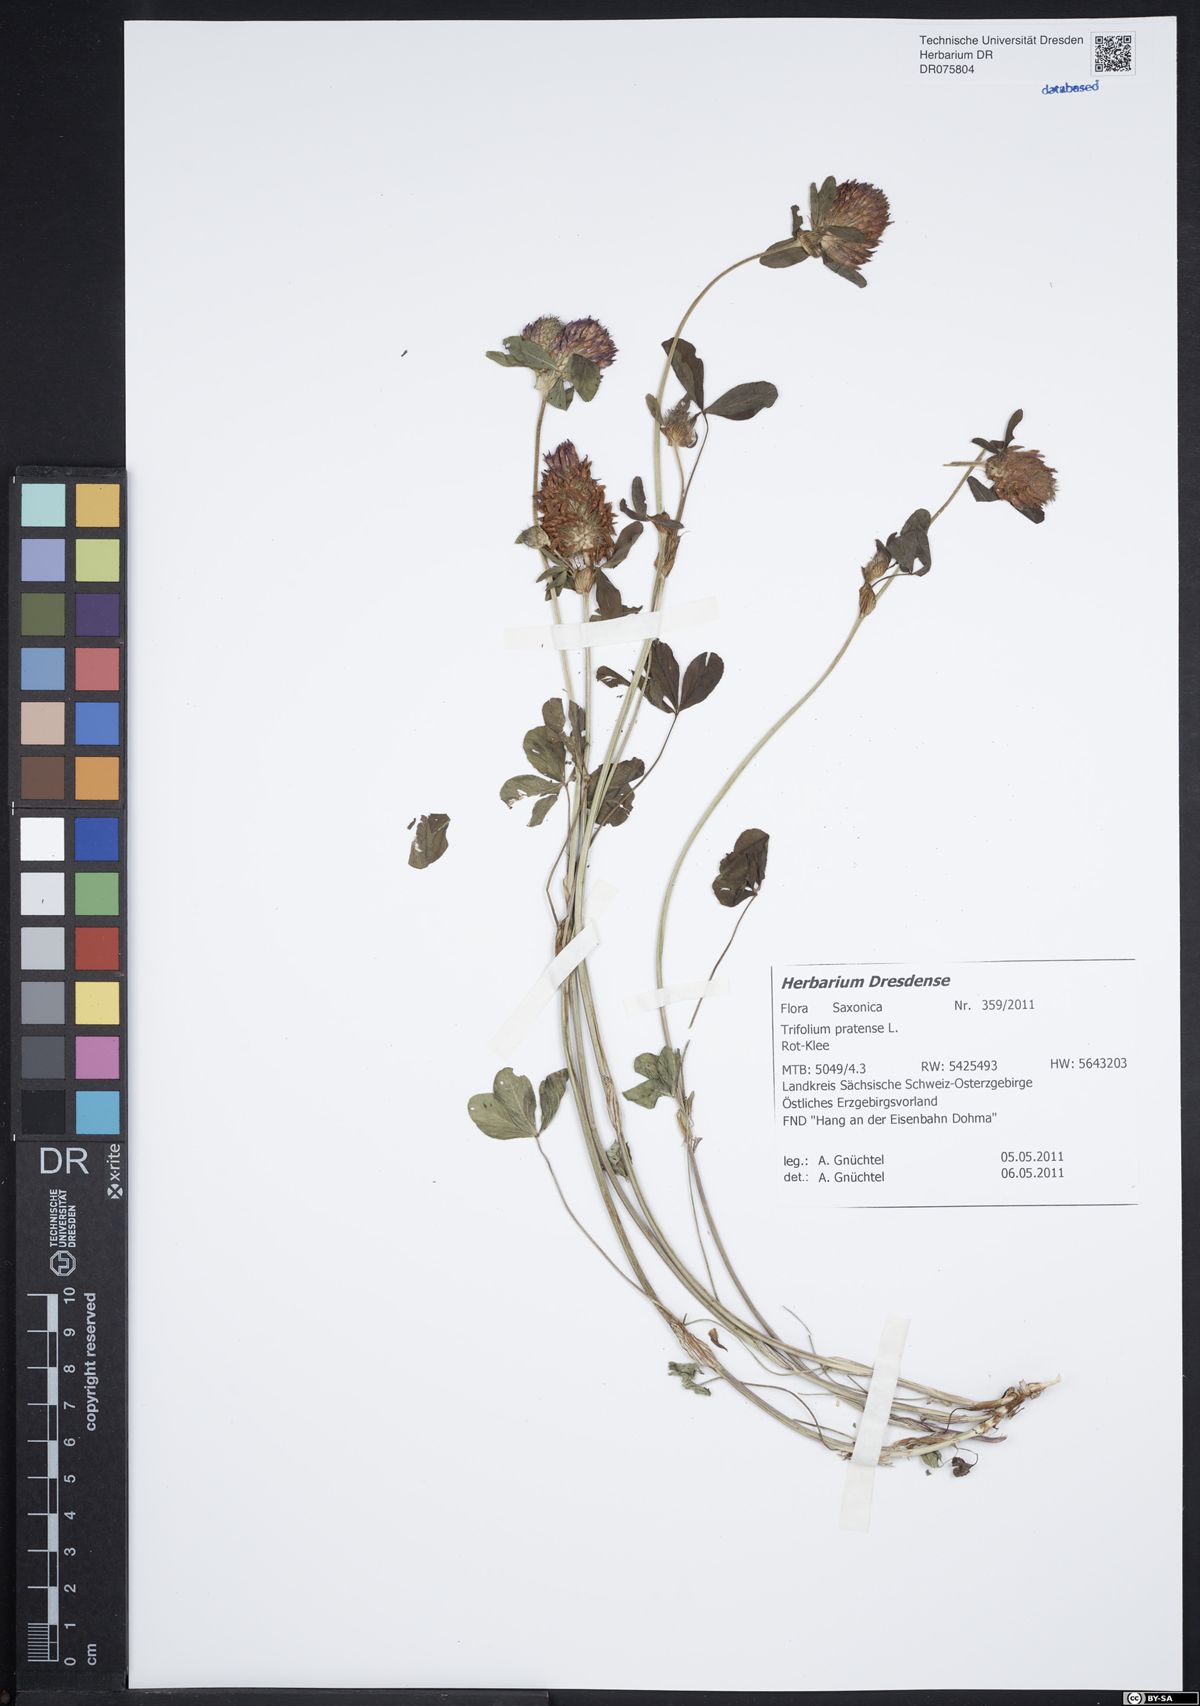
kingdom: Plantae
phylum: Tracheophyta
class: Magnoliopsida
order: Fabales
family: Fabaceae
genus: Trifolium
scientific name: Trifolium pratense
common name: Red clover
